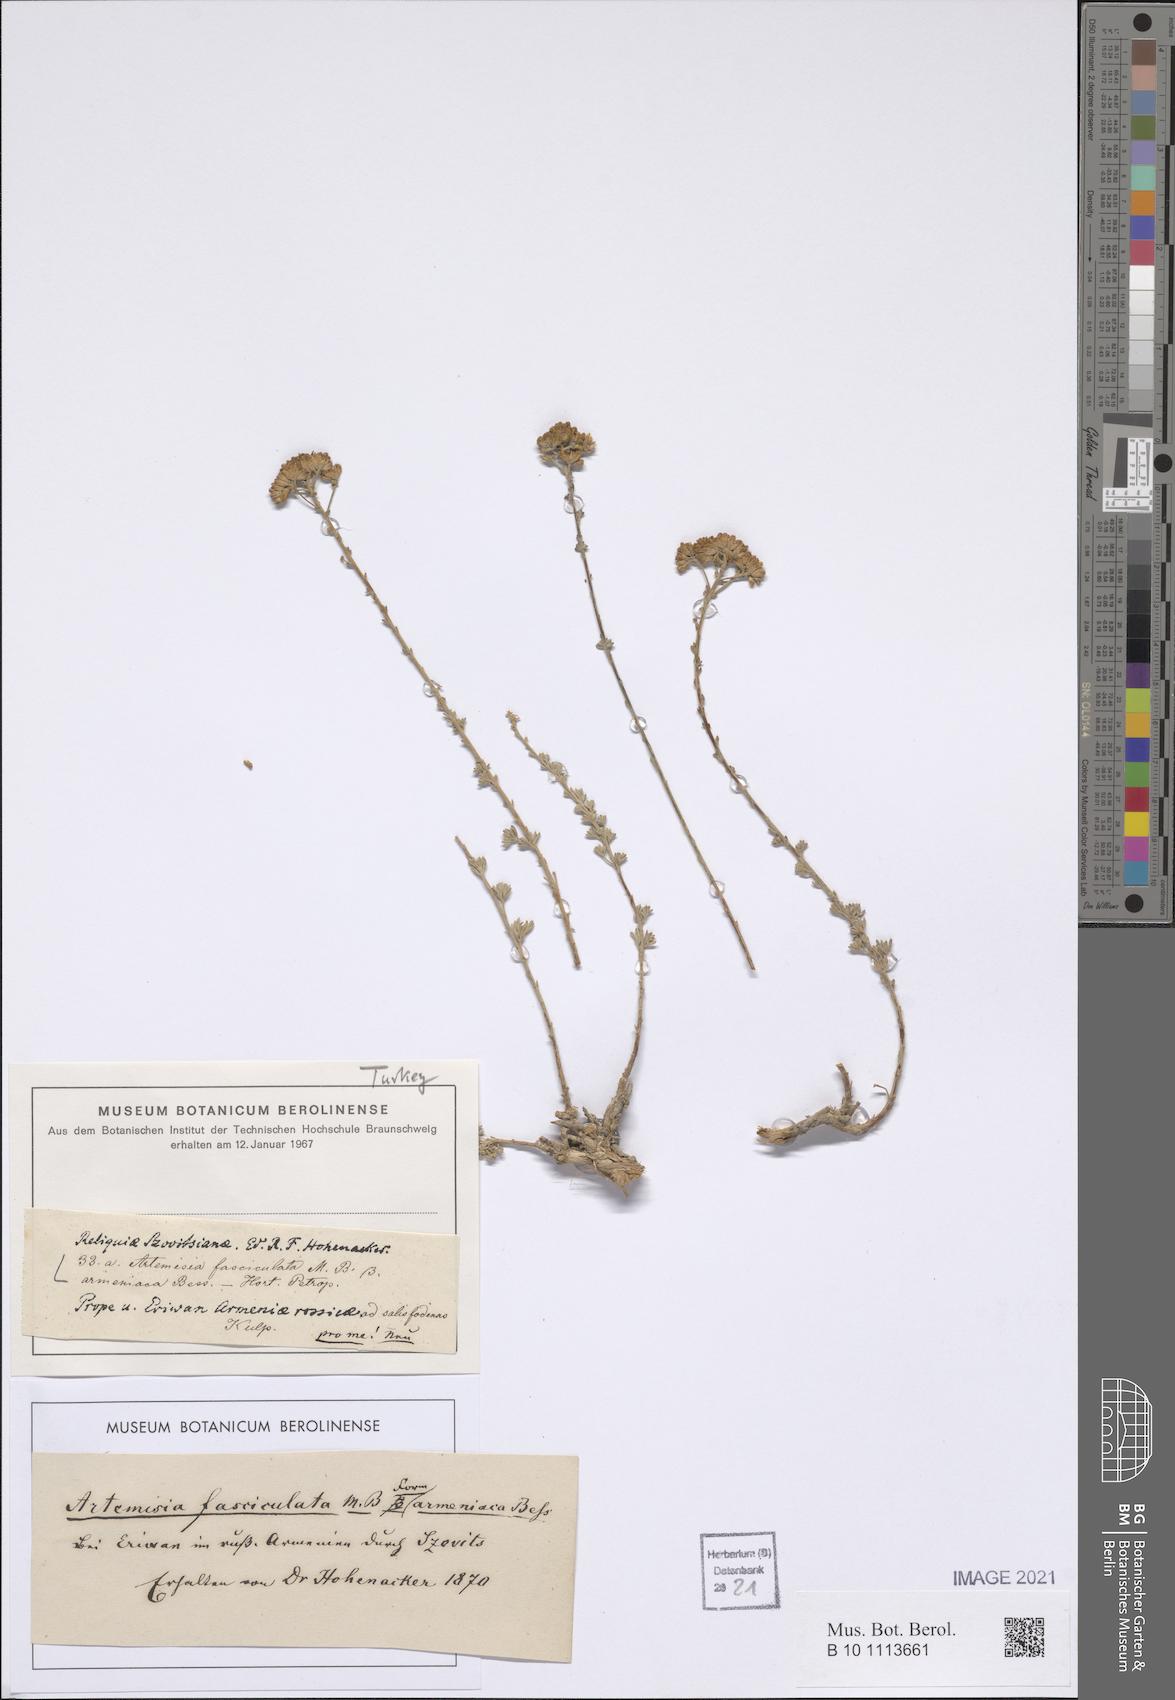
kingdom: Plantae
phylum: Tracheophyta
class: Magnoliopsida
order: Asterales
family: Asteraceae
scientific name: Asteraceae
